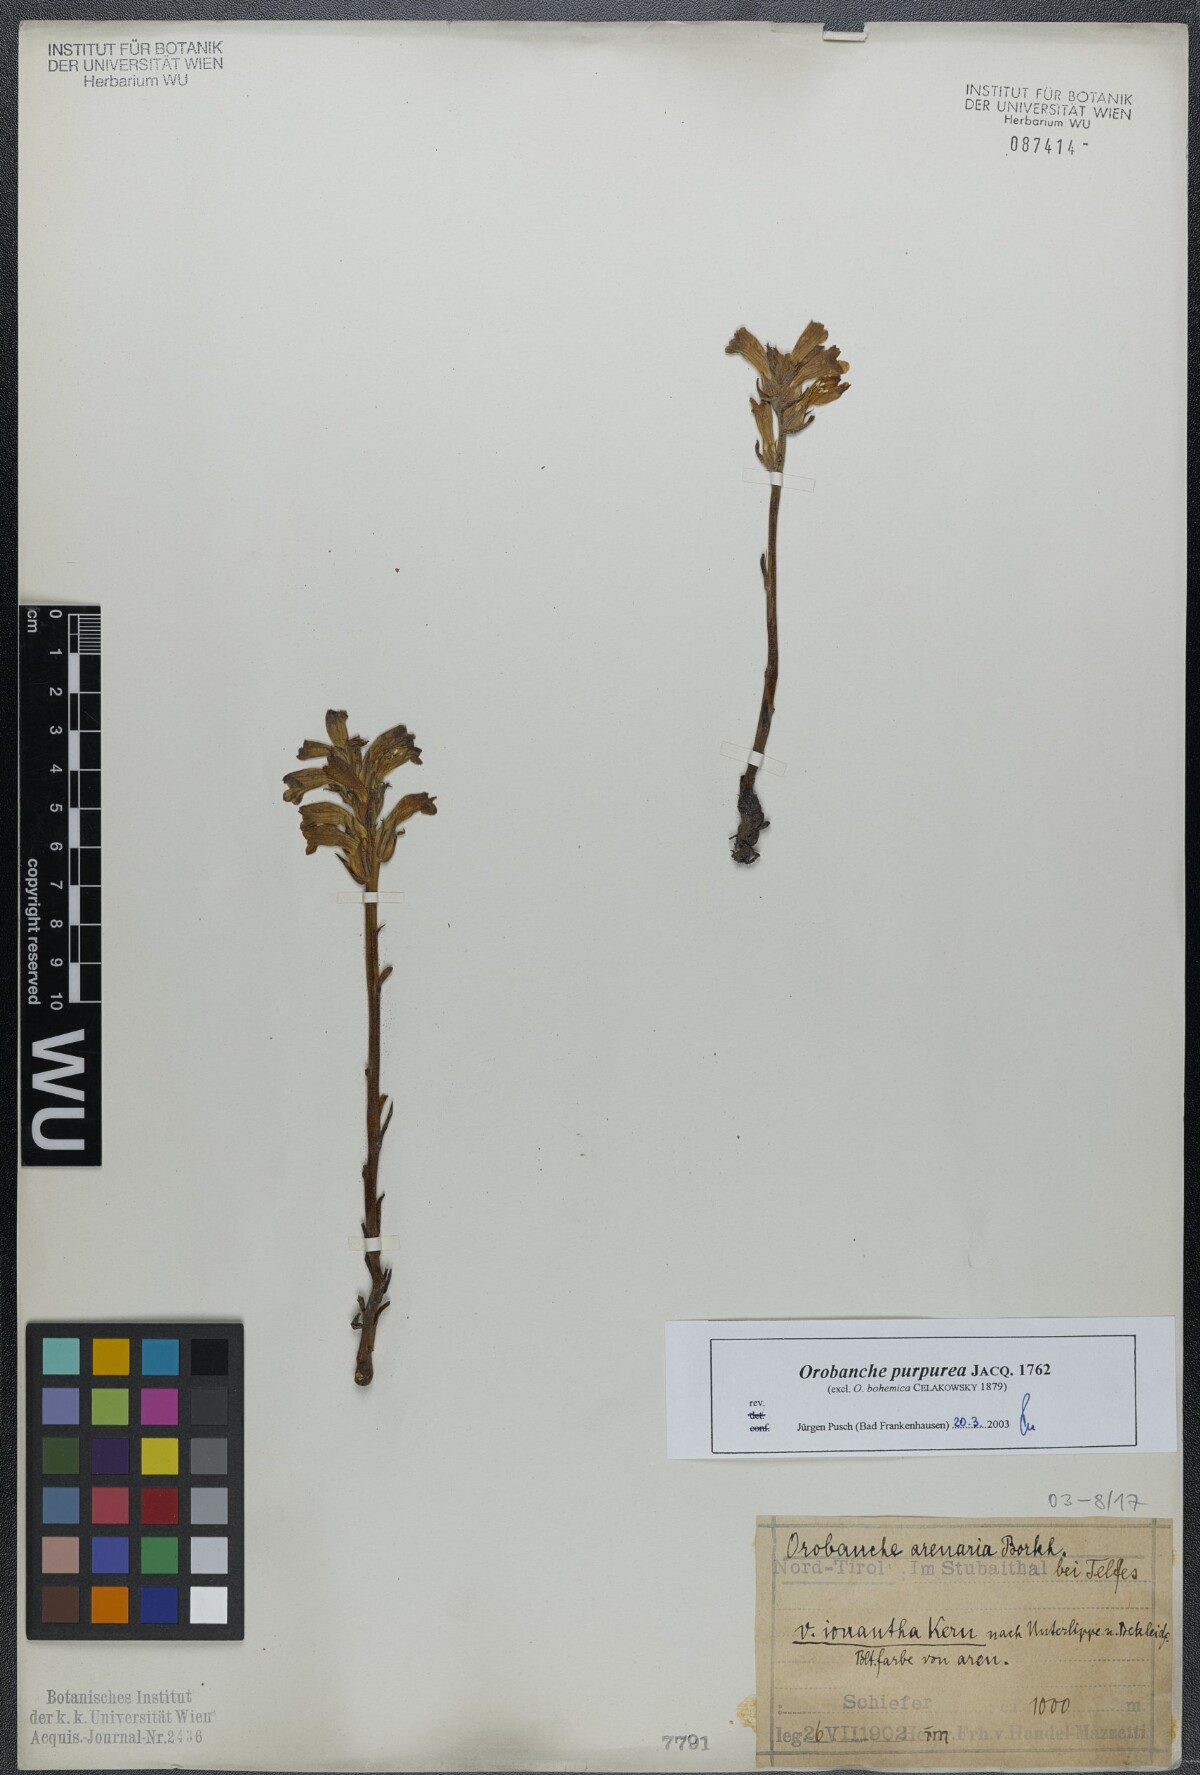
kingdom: Plantae
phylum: Tracheophyta
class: Magnoliopsida
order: Lamiales
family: Orobanchaceae
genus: Phelipanche
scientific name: Phelipanche purpurea
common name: Purple broomrape
